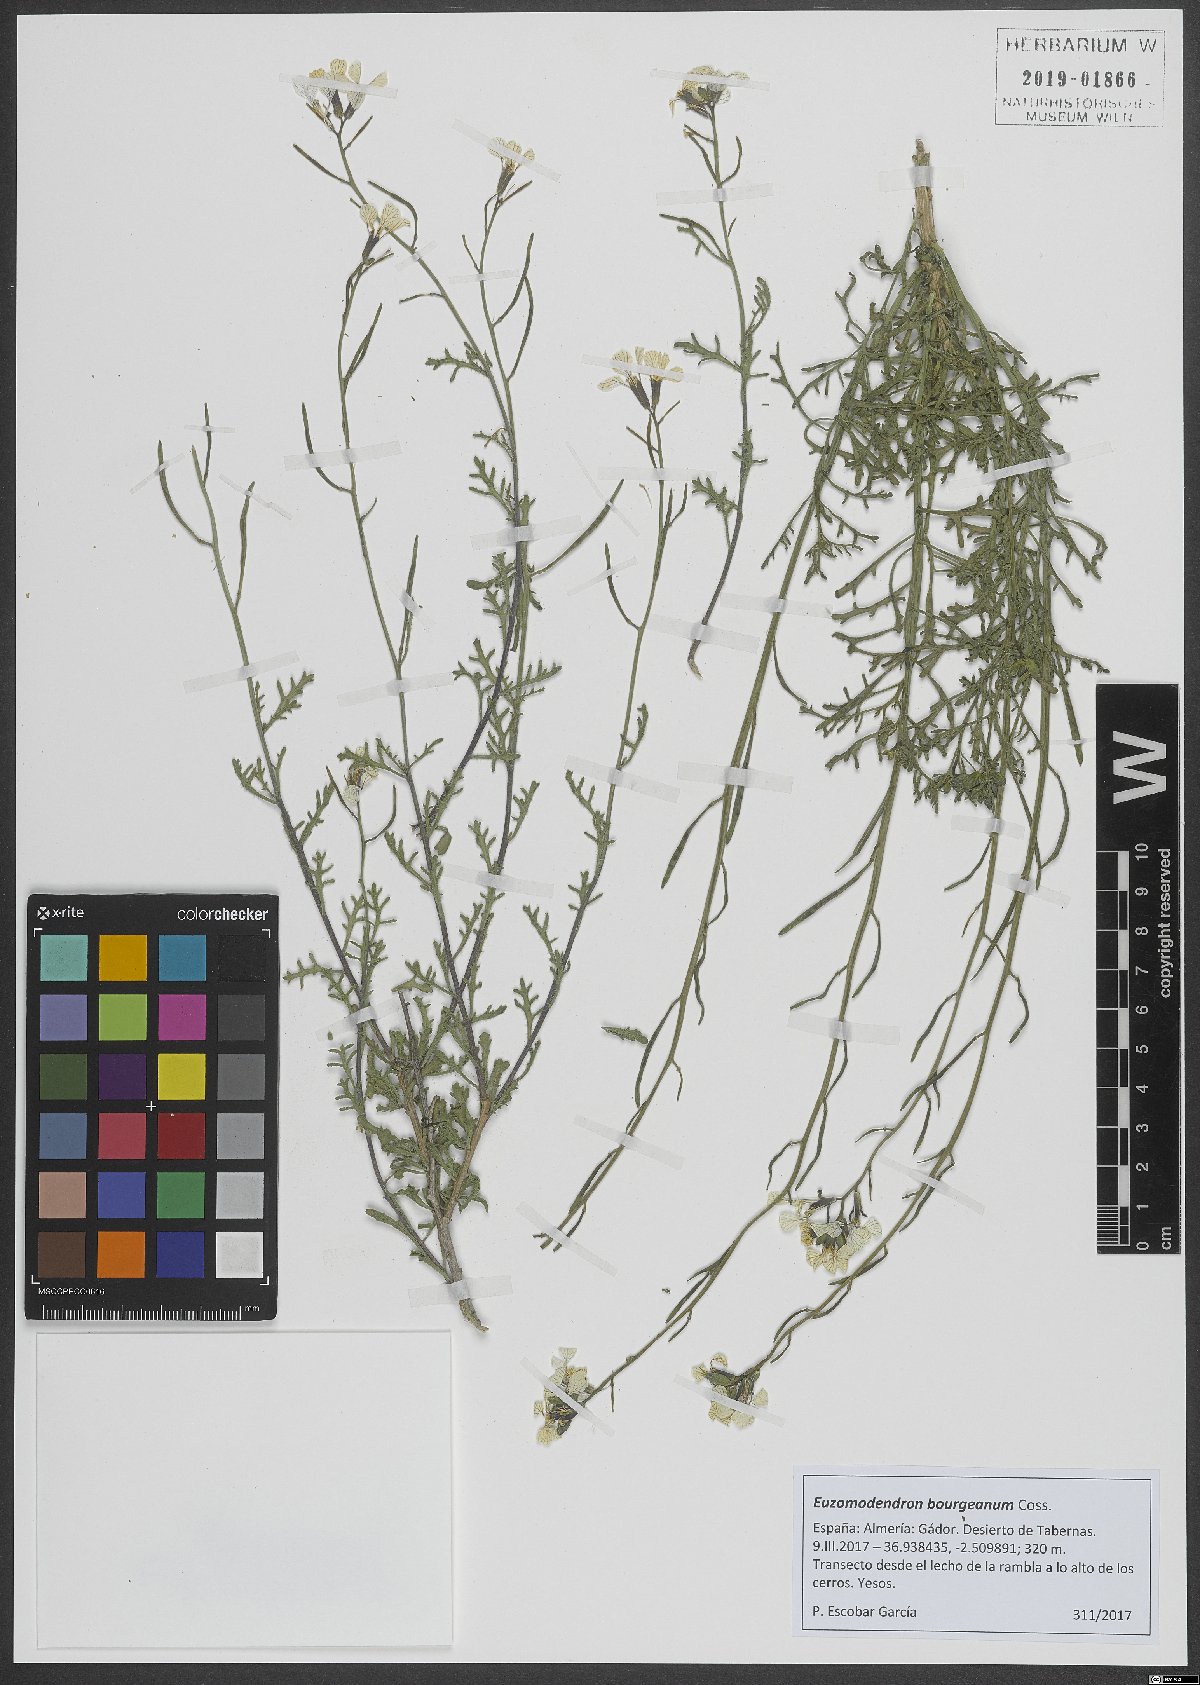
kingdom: Plantae
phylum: Tracheophyta
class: Magnoliopsida
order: Brassicales
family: Brassicaceae
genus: Vella
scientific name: Vella bourgaeana
